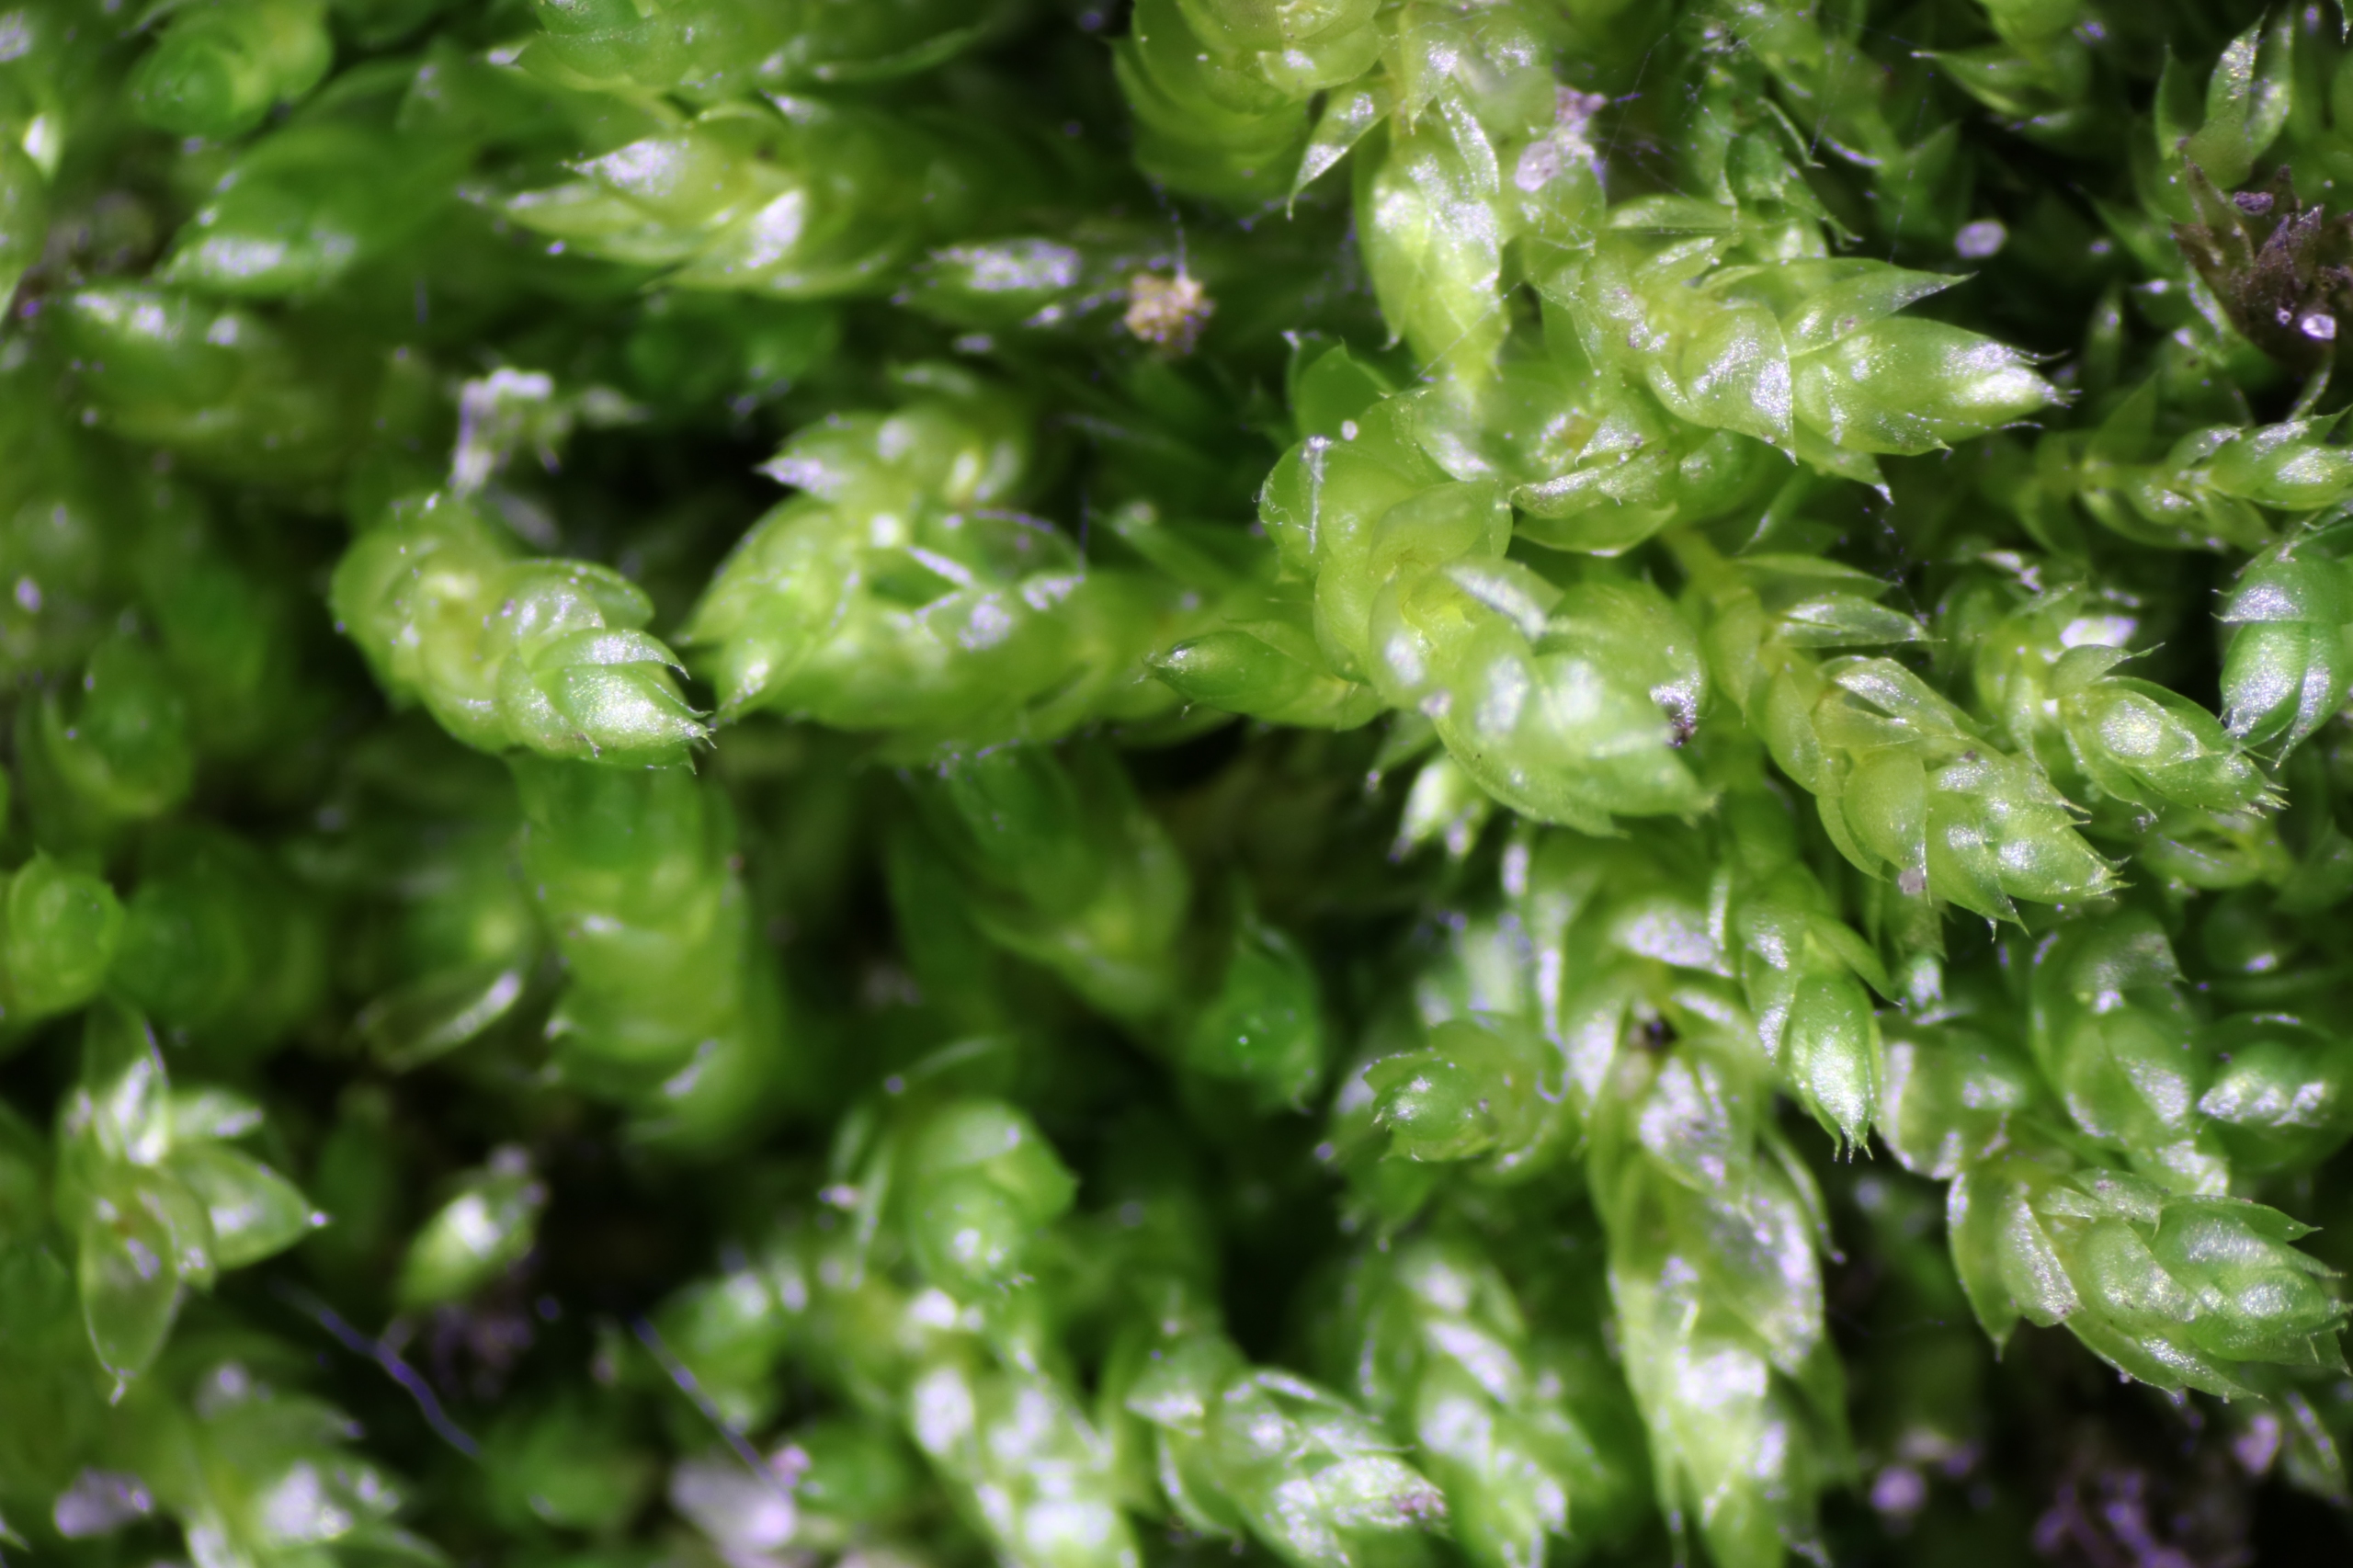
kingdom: Plantae
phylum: Bryophyta
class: Bryopsida
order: Hypnales
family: Plagiotheciaceae
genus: Plagiothecium
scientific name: Plagiothecium cavifolium
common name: Hulbladet tæppemos
